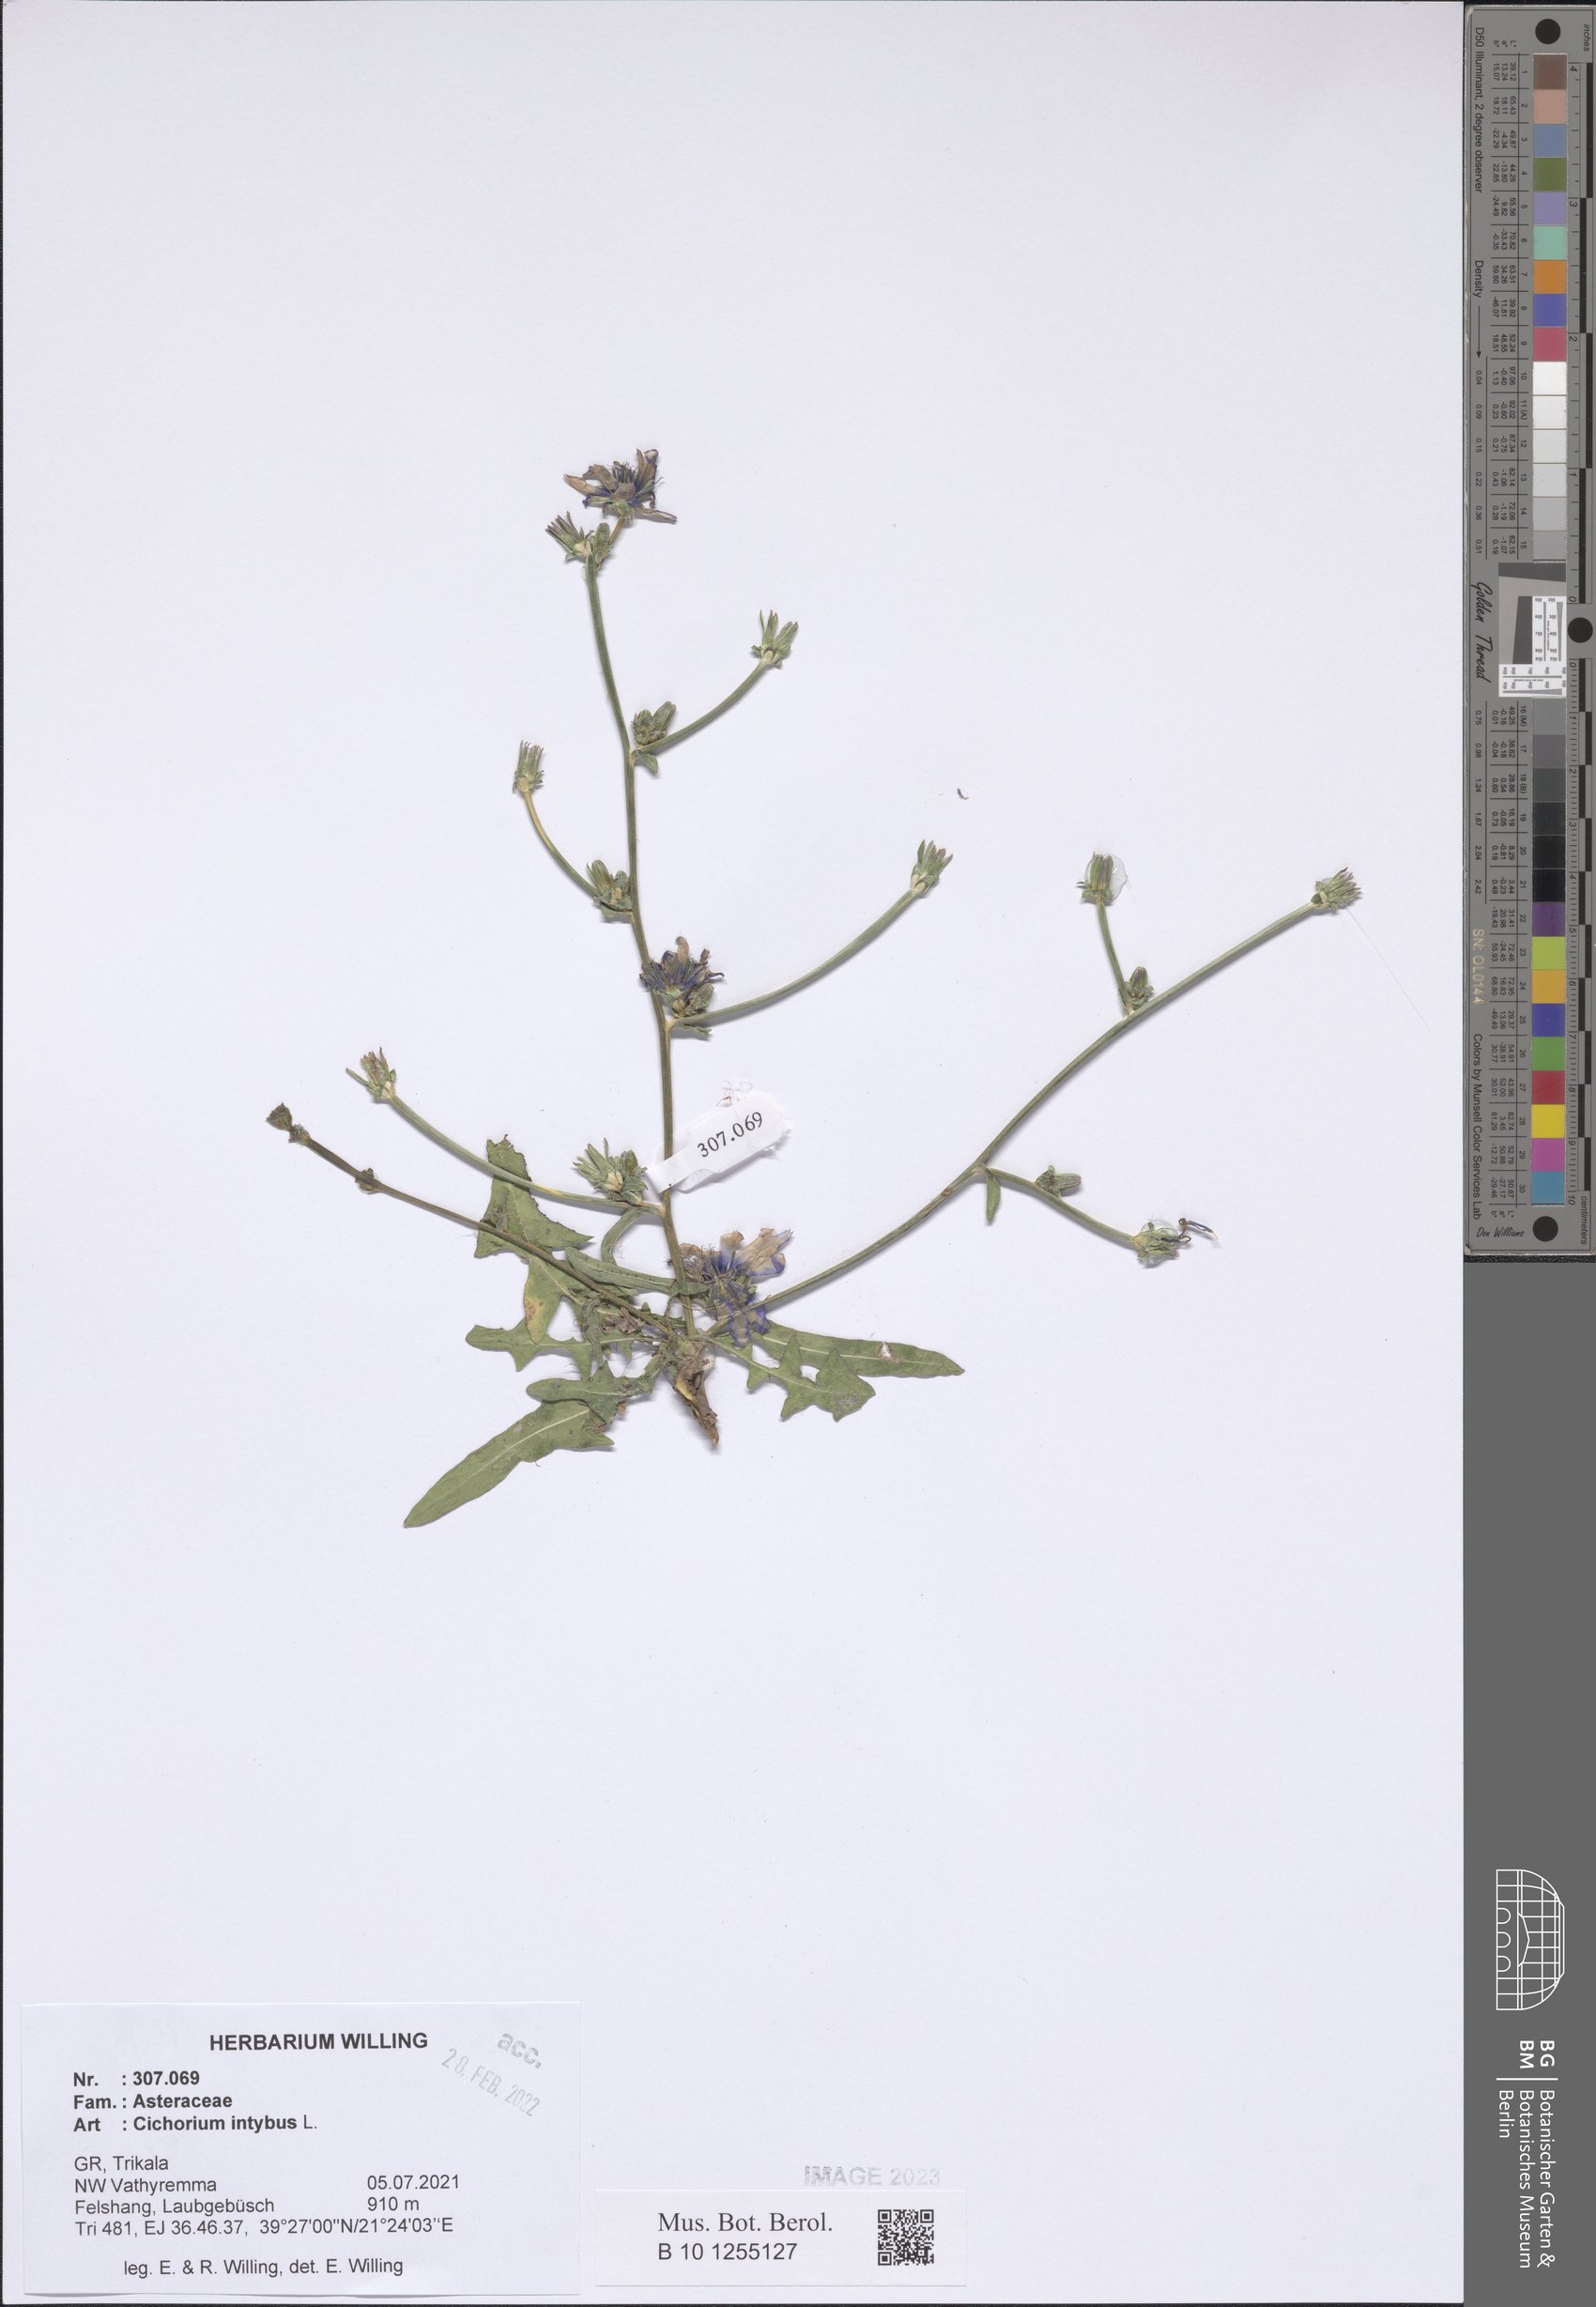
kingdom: Plantae
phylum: Tracheophyta
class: Magnoliopsida
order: Asterales
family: Asteraceae
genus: Cichorium
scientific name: Cichorium intybus
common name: Chicory
